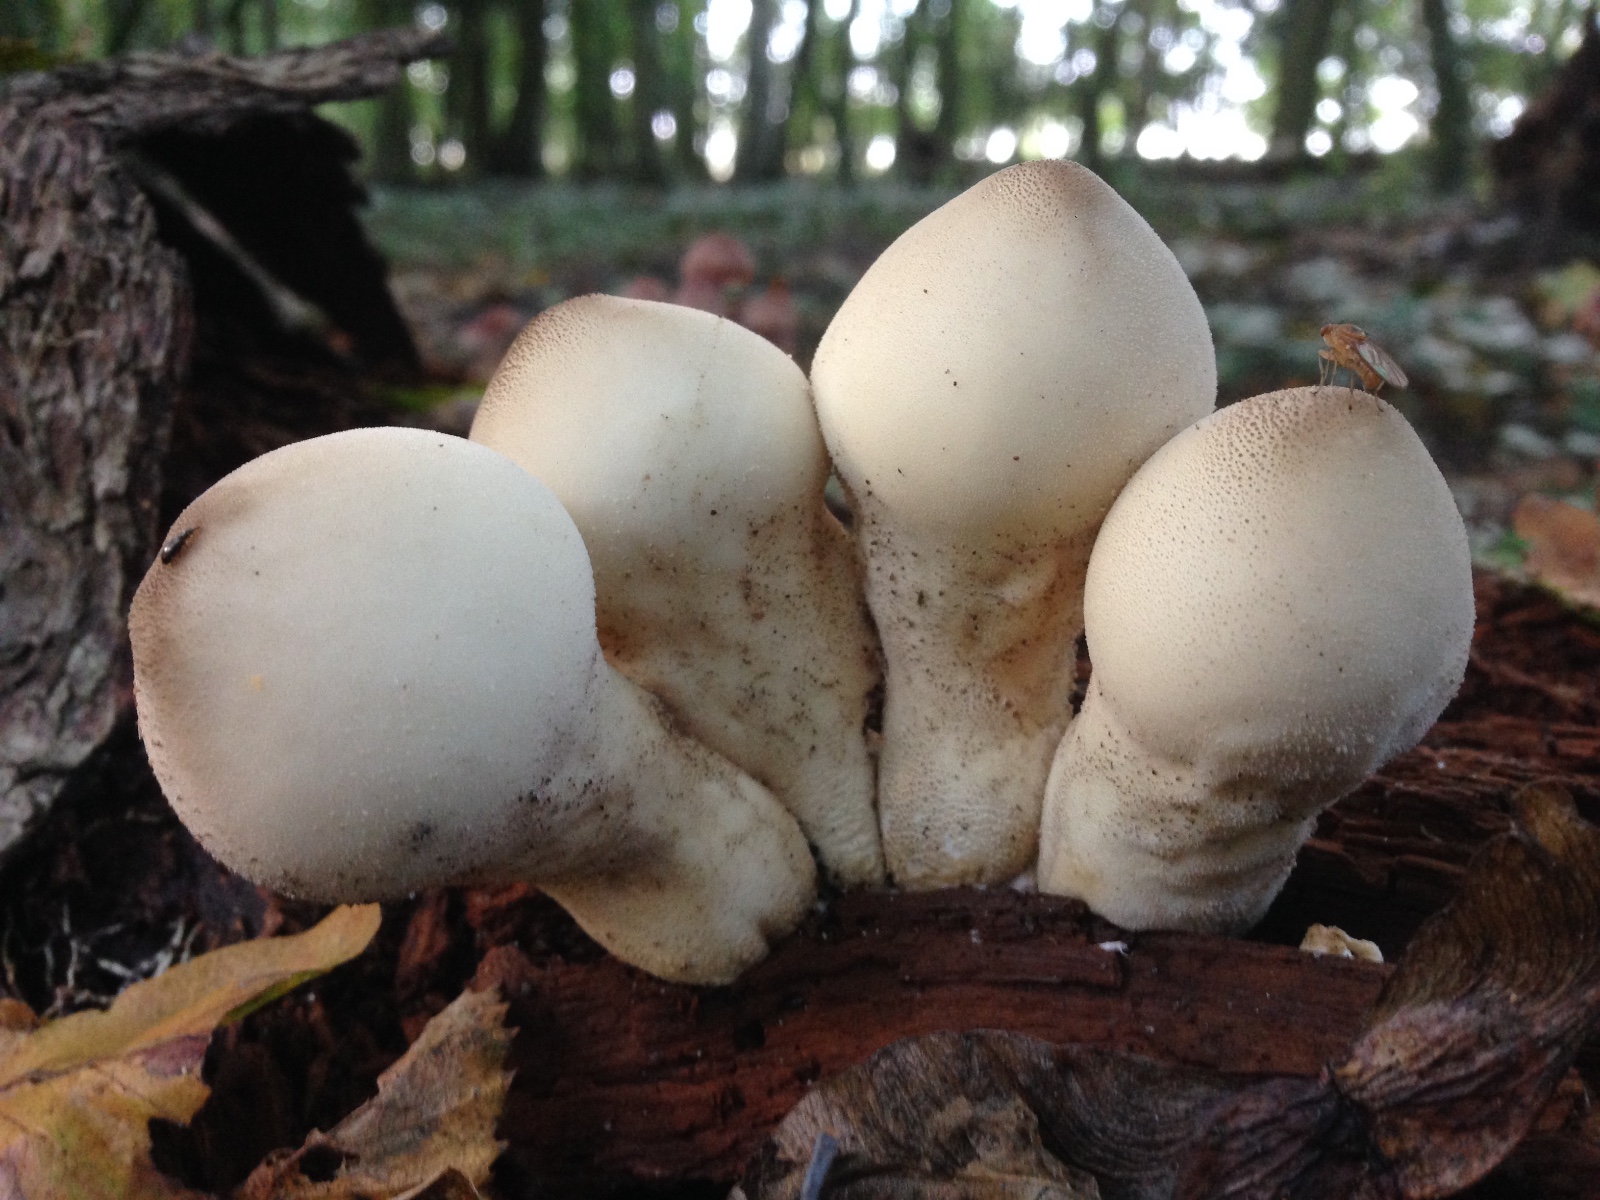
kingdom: Fungi
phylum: Basidiomycota
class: Agaricomycetes
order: Agaricales
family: Lycoperdaceae
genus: Apioperdon
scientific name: Apioperdon pyriforme
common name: pære-støvbold
